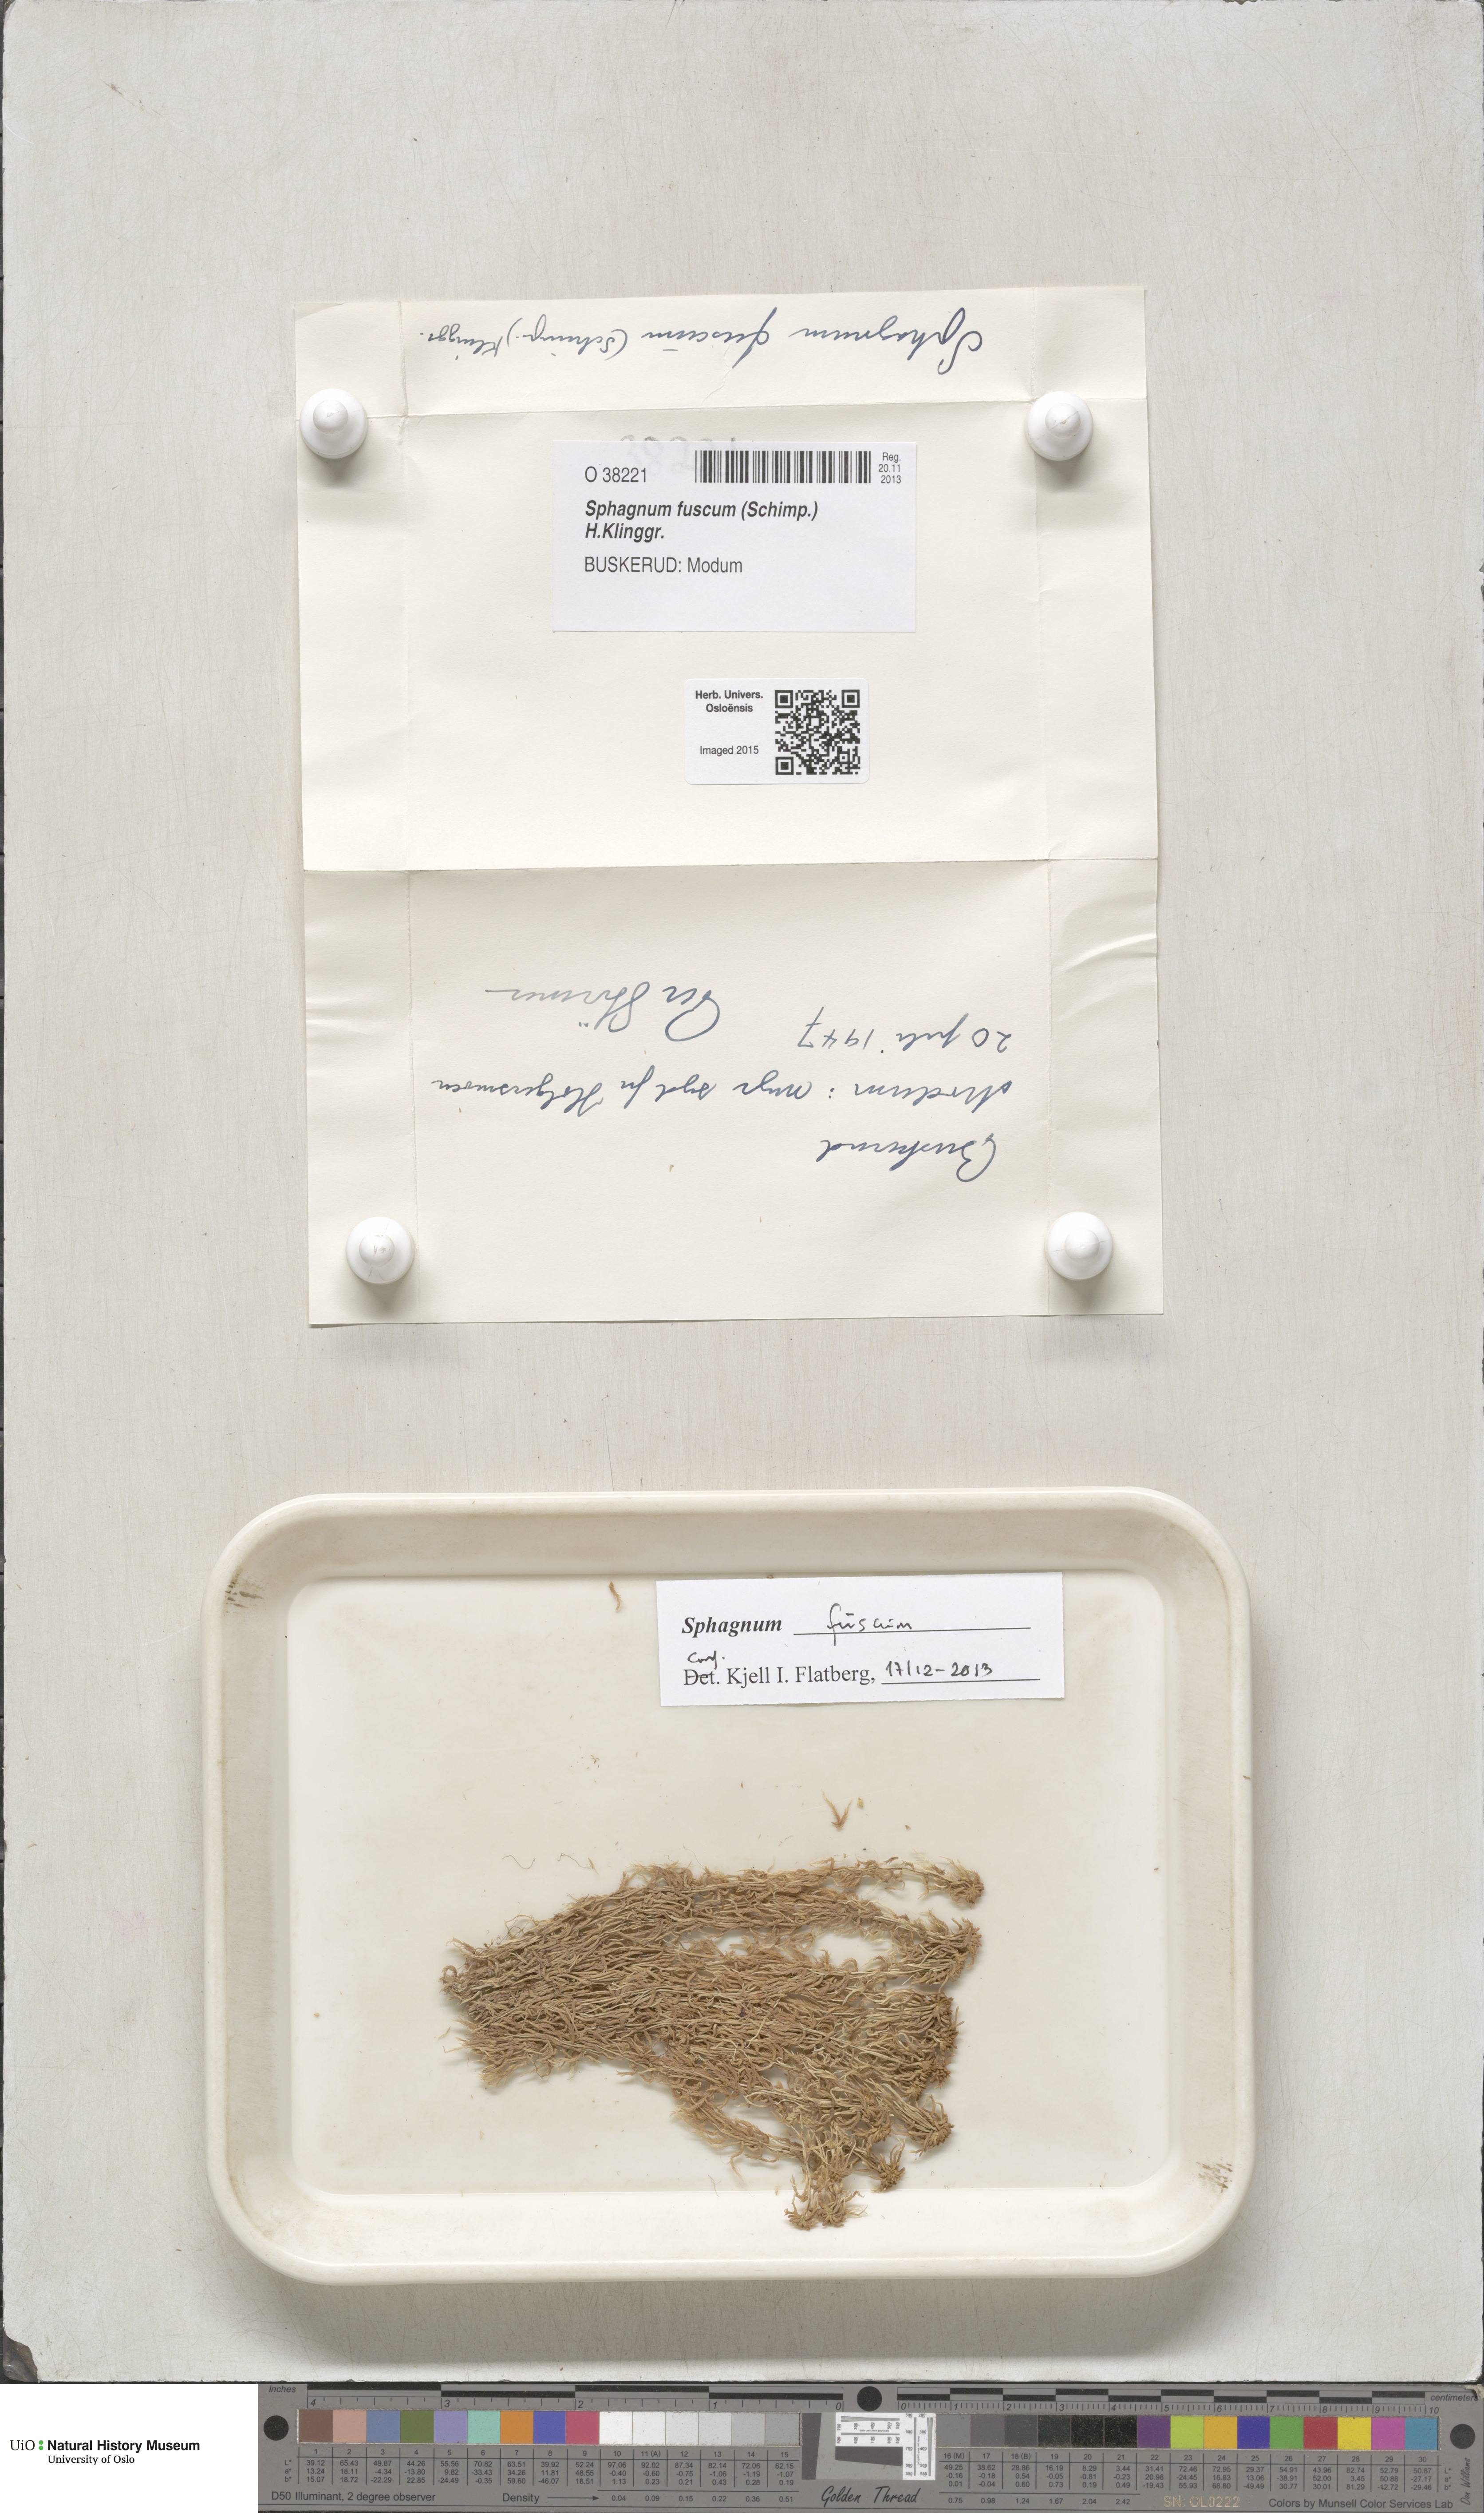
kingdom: Plantae
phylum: Bryophyta
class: Sphagnopsida
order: Sphagnales
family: Sphagnaceae
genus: Sphagnum
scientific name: Sphagnum fuscum
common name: Brown peat moss
